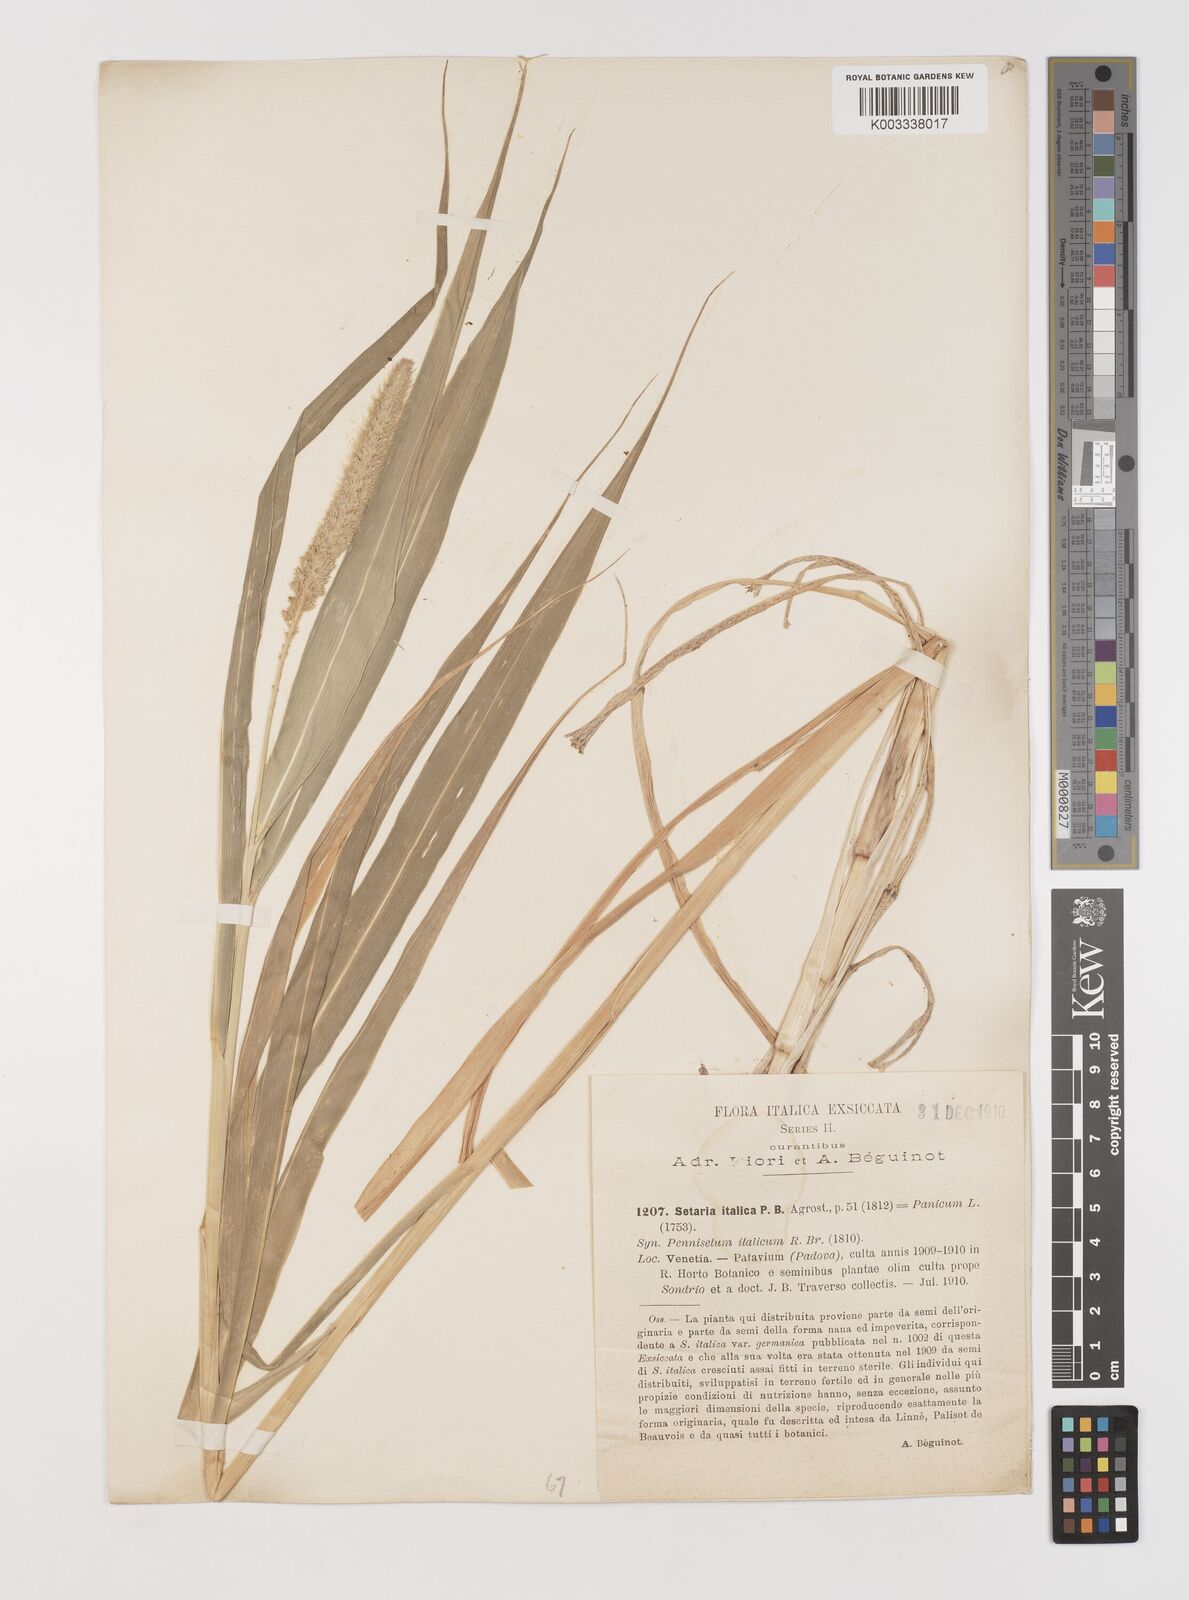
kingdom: Plantae
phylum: Tracheophyta
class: Liliopsida
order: Poales
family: Poaceae
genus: Setaria
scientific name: Setaria italica
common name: Foxtail bristle-grass
